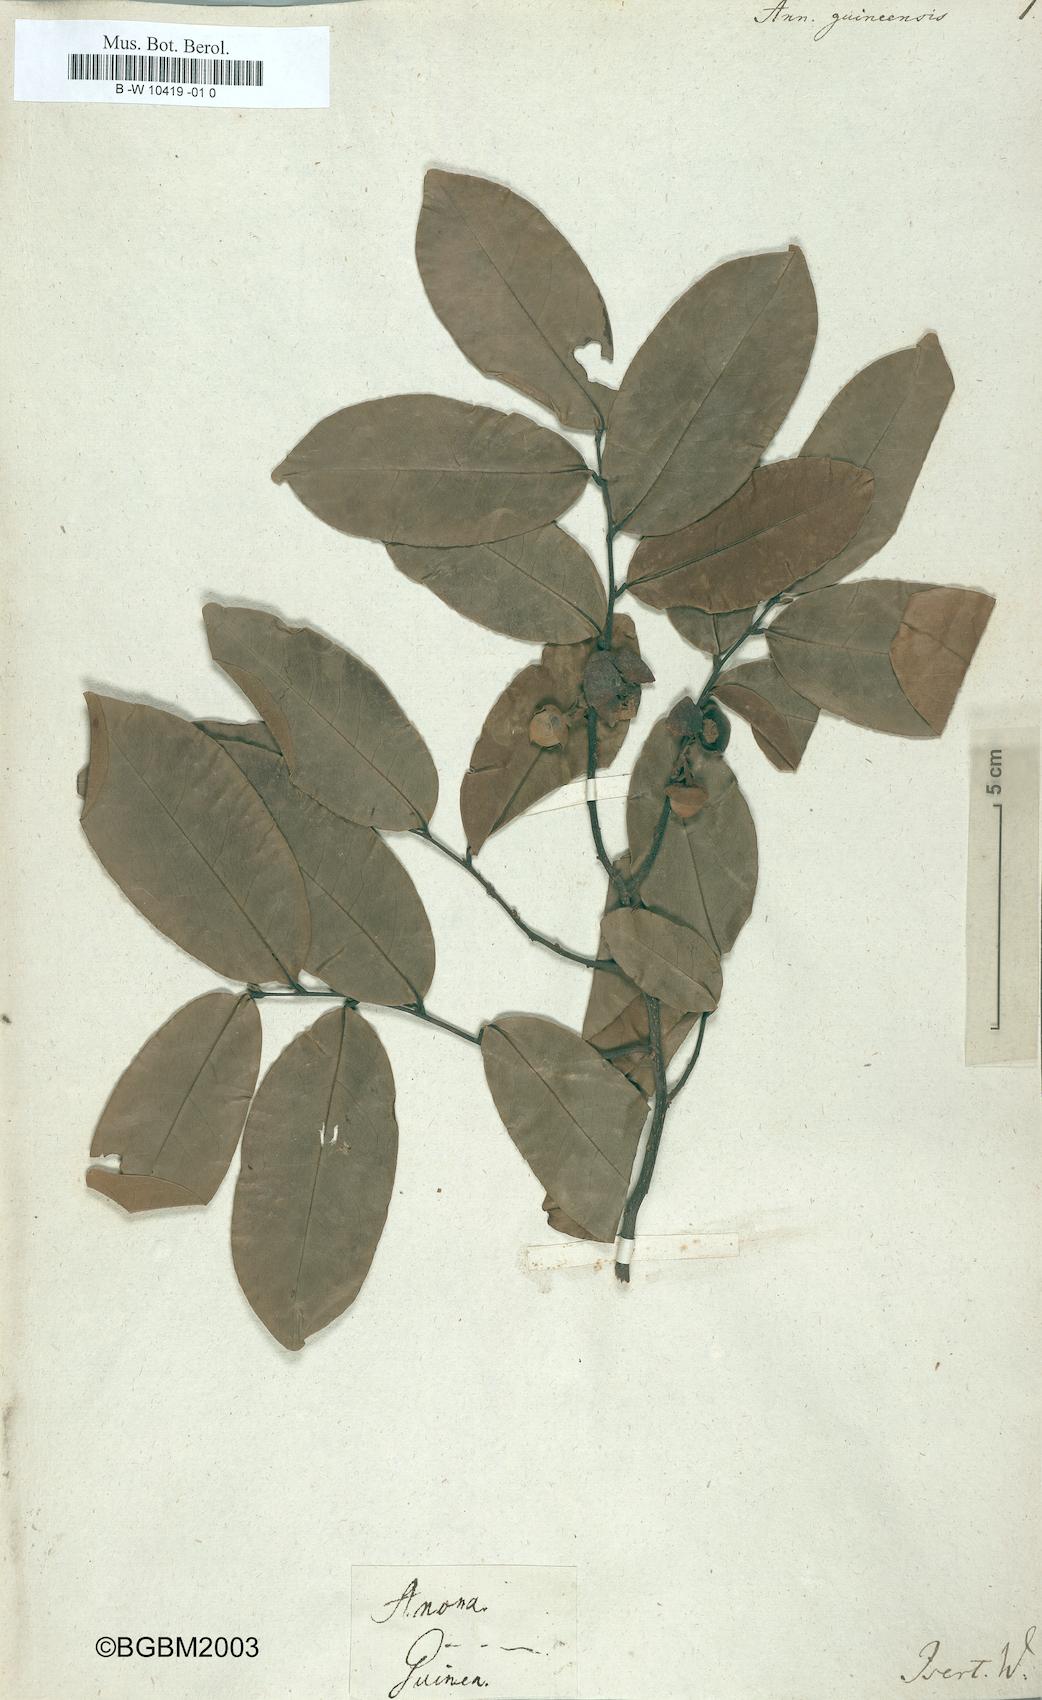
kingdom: Plantae
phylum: Tracheophyta
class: Magnoliopsida
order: Magnoliales
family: Annonaceae
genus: Annona
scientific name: Annona
